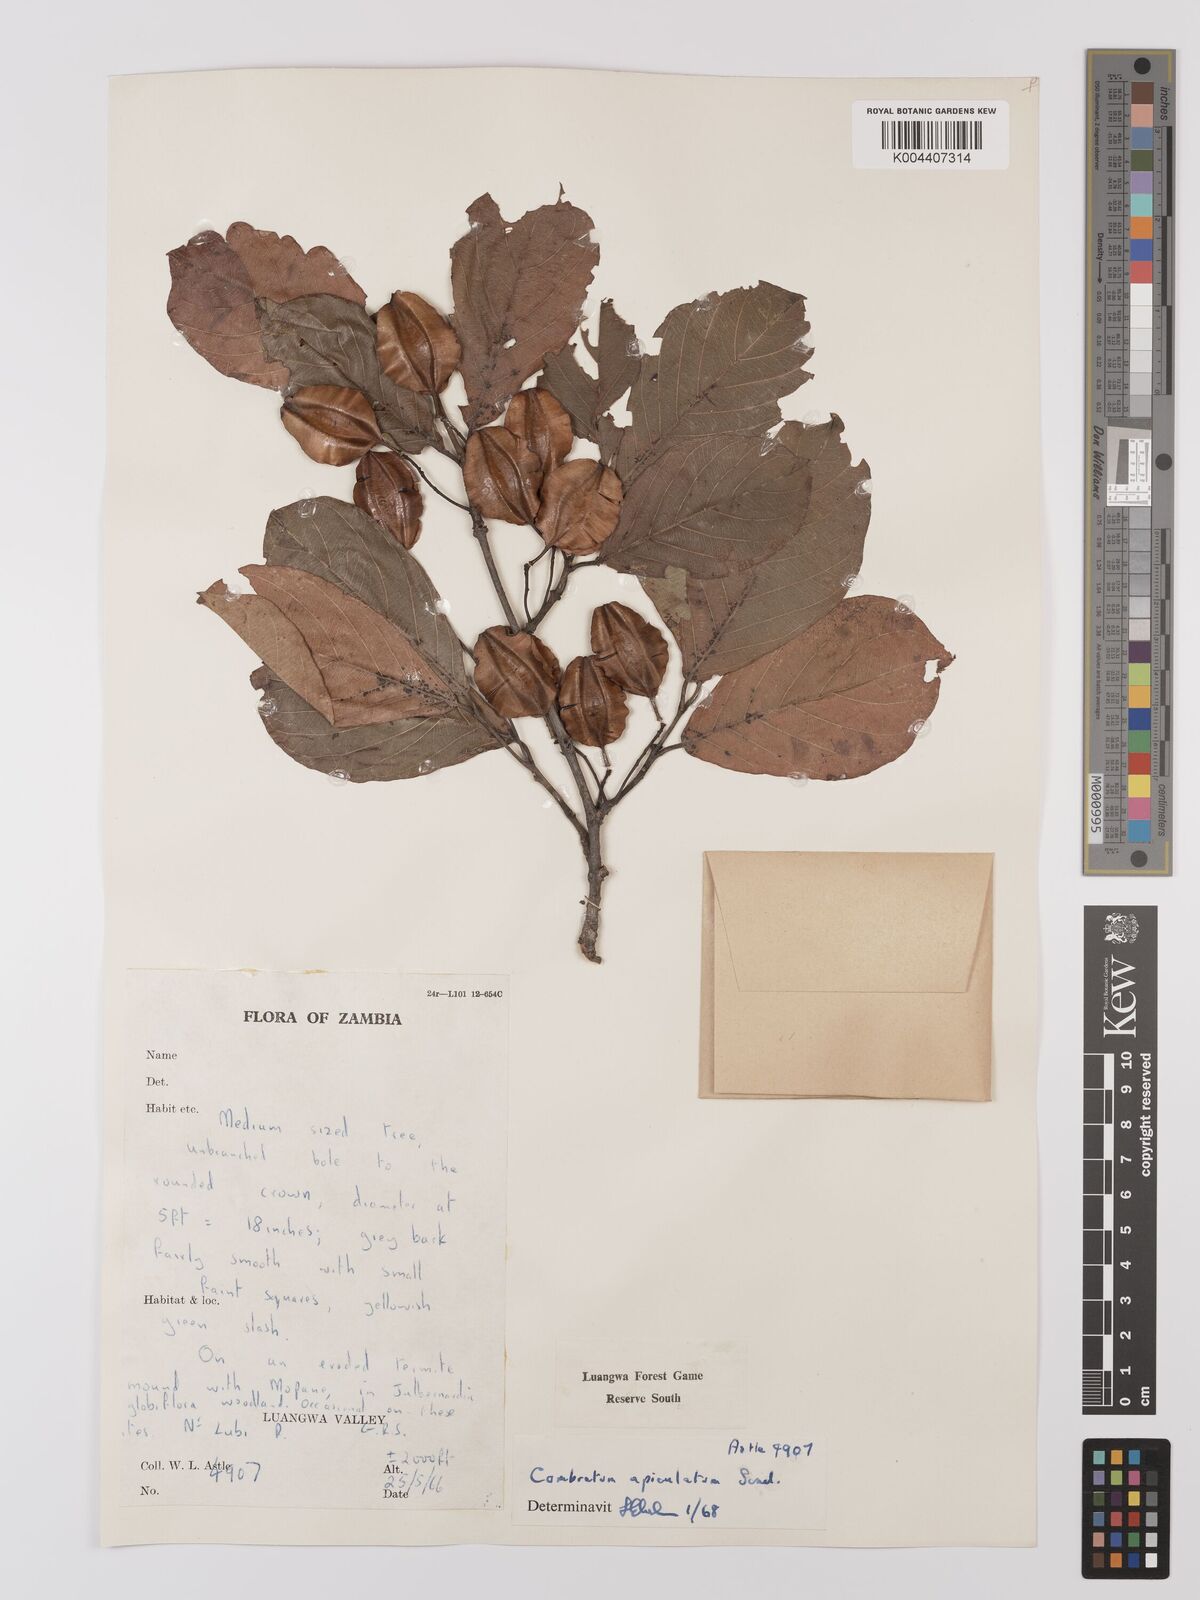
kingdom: Plantae
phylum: Tracheophyta
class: Magnoliopsida
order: Myrtales
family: Combretaceae
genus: Combretum
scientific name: Combretum apiculatum
